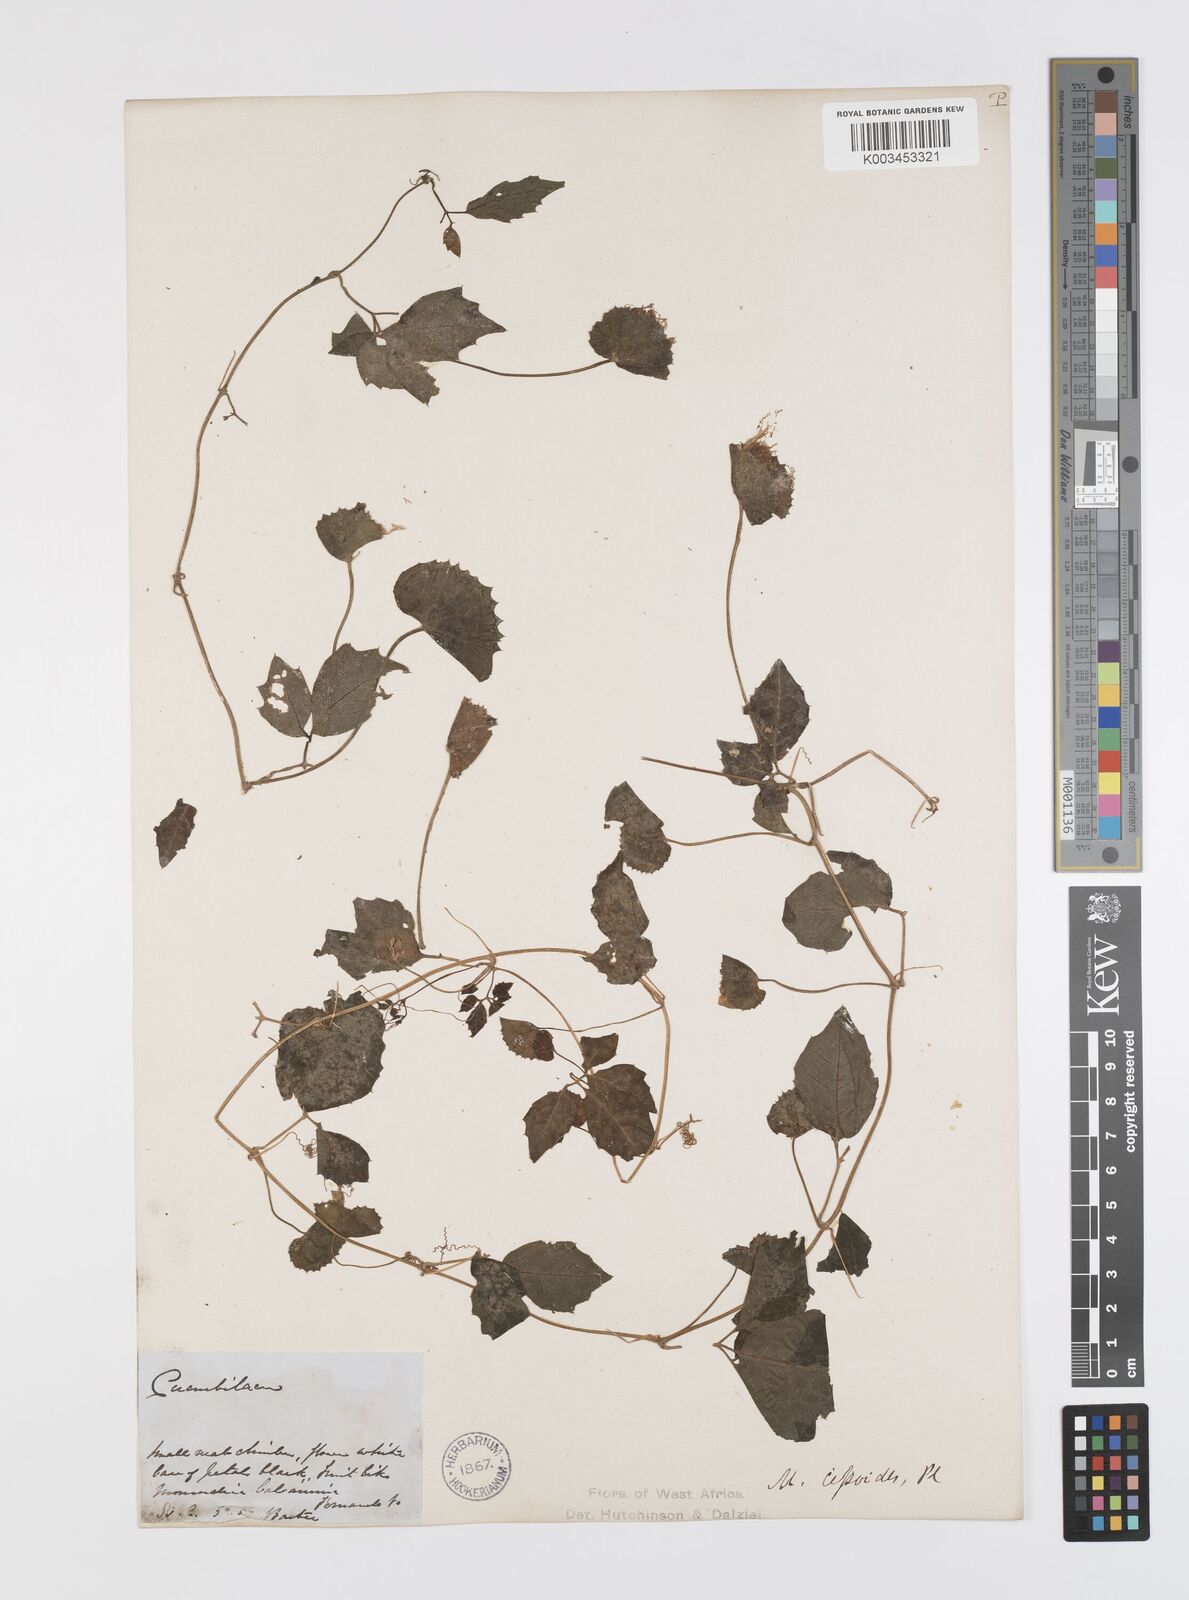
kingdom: Plantae
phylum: Tracheophyta
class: Magnoliopsida
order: Cucurbitales
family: Cucurbitaceae
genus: Momordica
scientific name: Momordica cissoides
